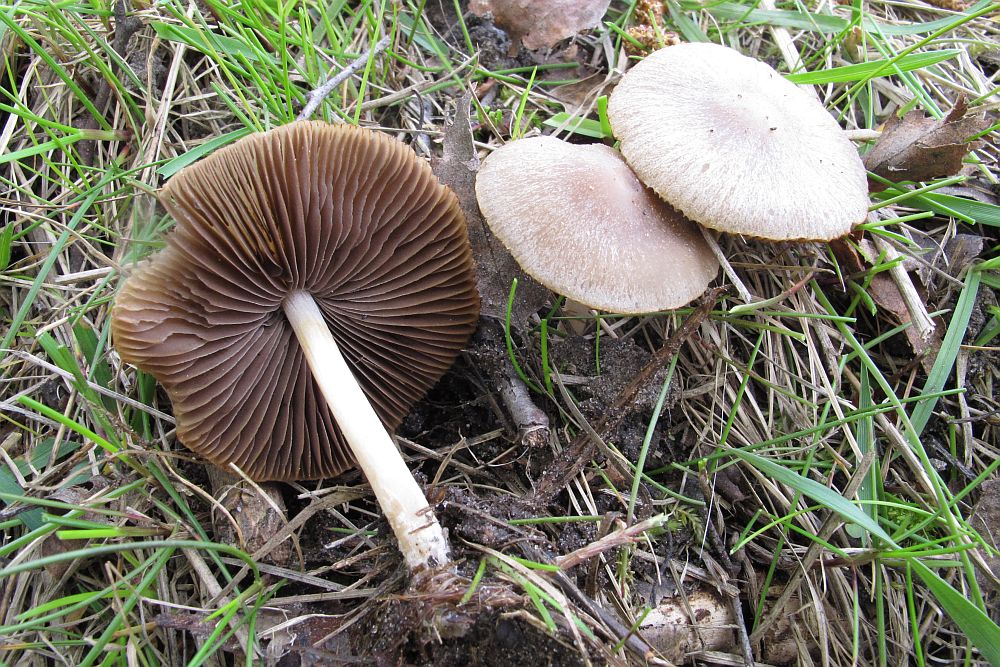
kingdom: Fungi
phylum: Basidiomycota
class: Agaricomycetes
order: Agaricales
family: Psathyrellaceae
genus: Psathyrella
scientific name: Psathyrella spadiceogrisea
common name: gråbrun mørkhat
